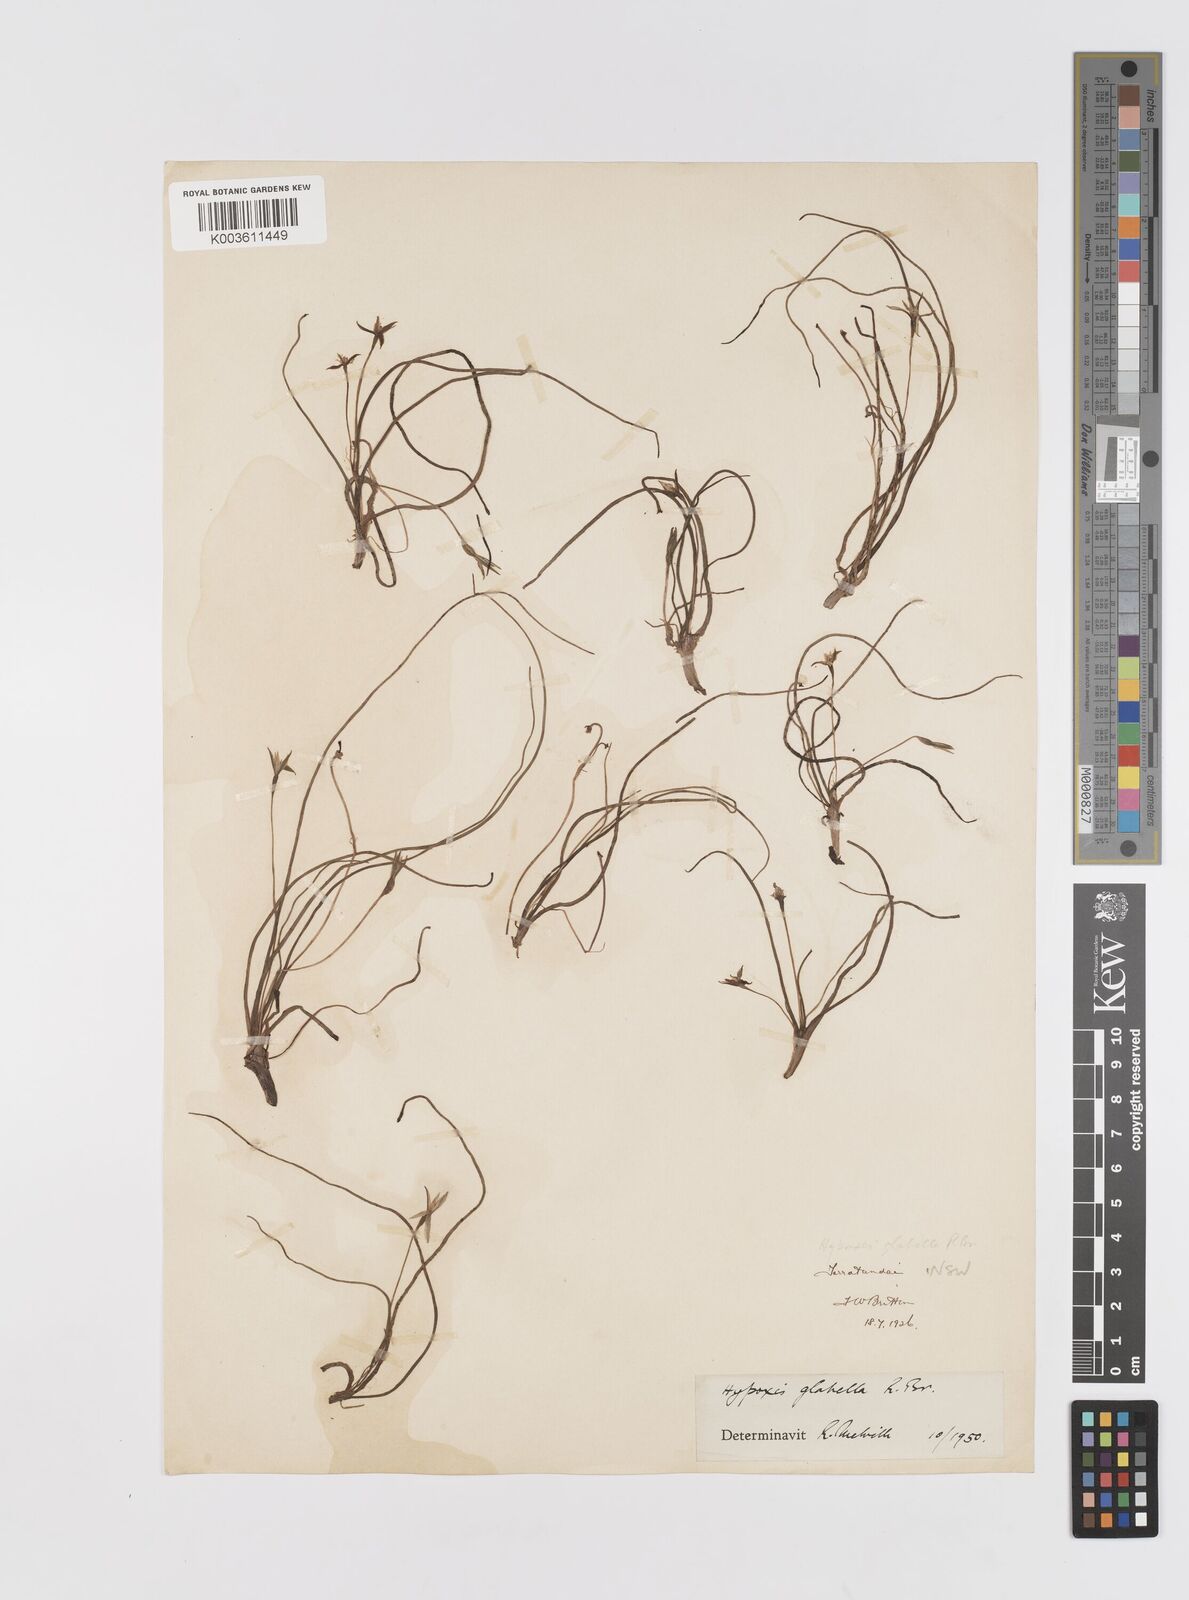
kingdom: Plantae
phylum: Tracheophyta
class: Liliopsida
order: Asparagales
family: Hypoxidaceae
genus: Pauridia
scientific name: Pauridia glabella
